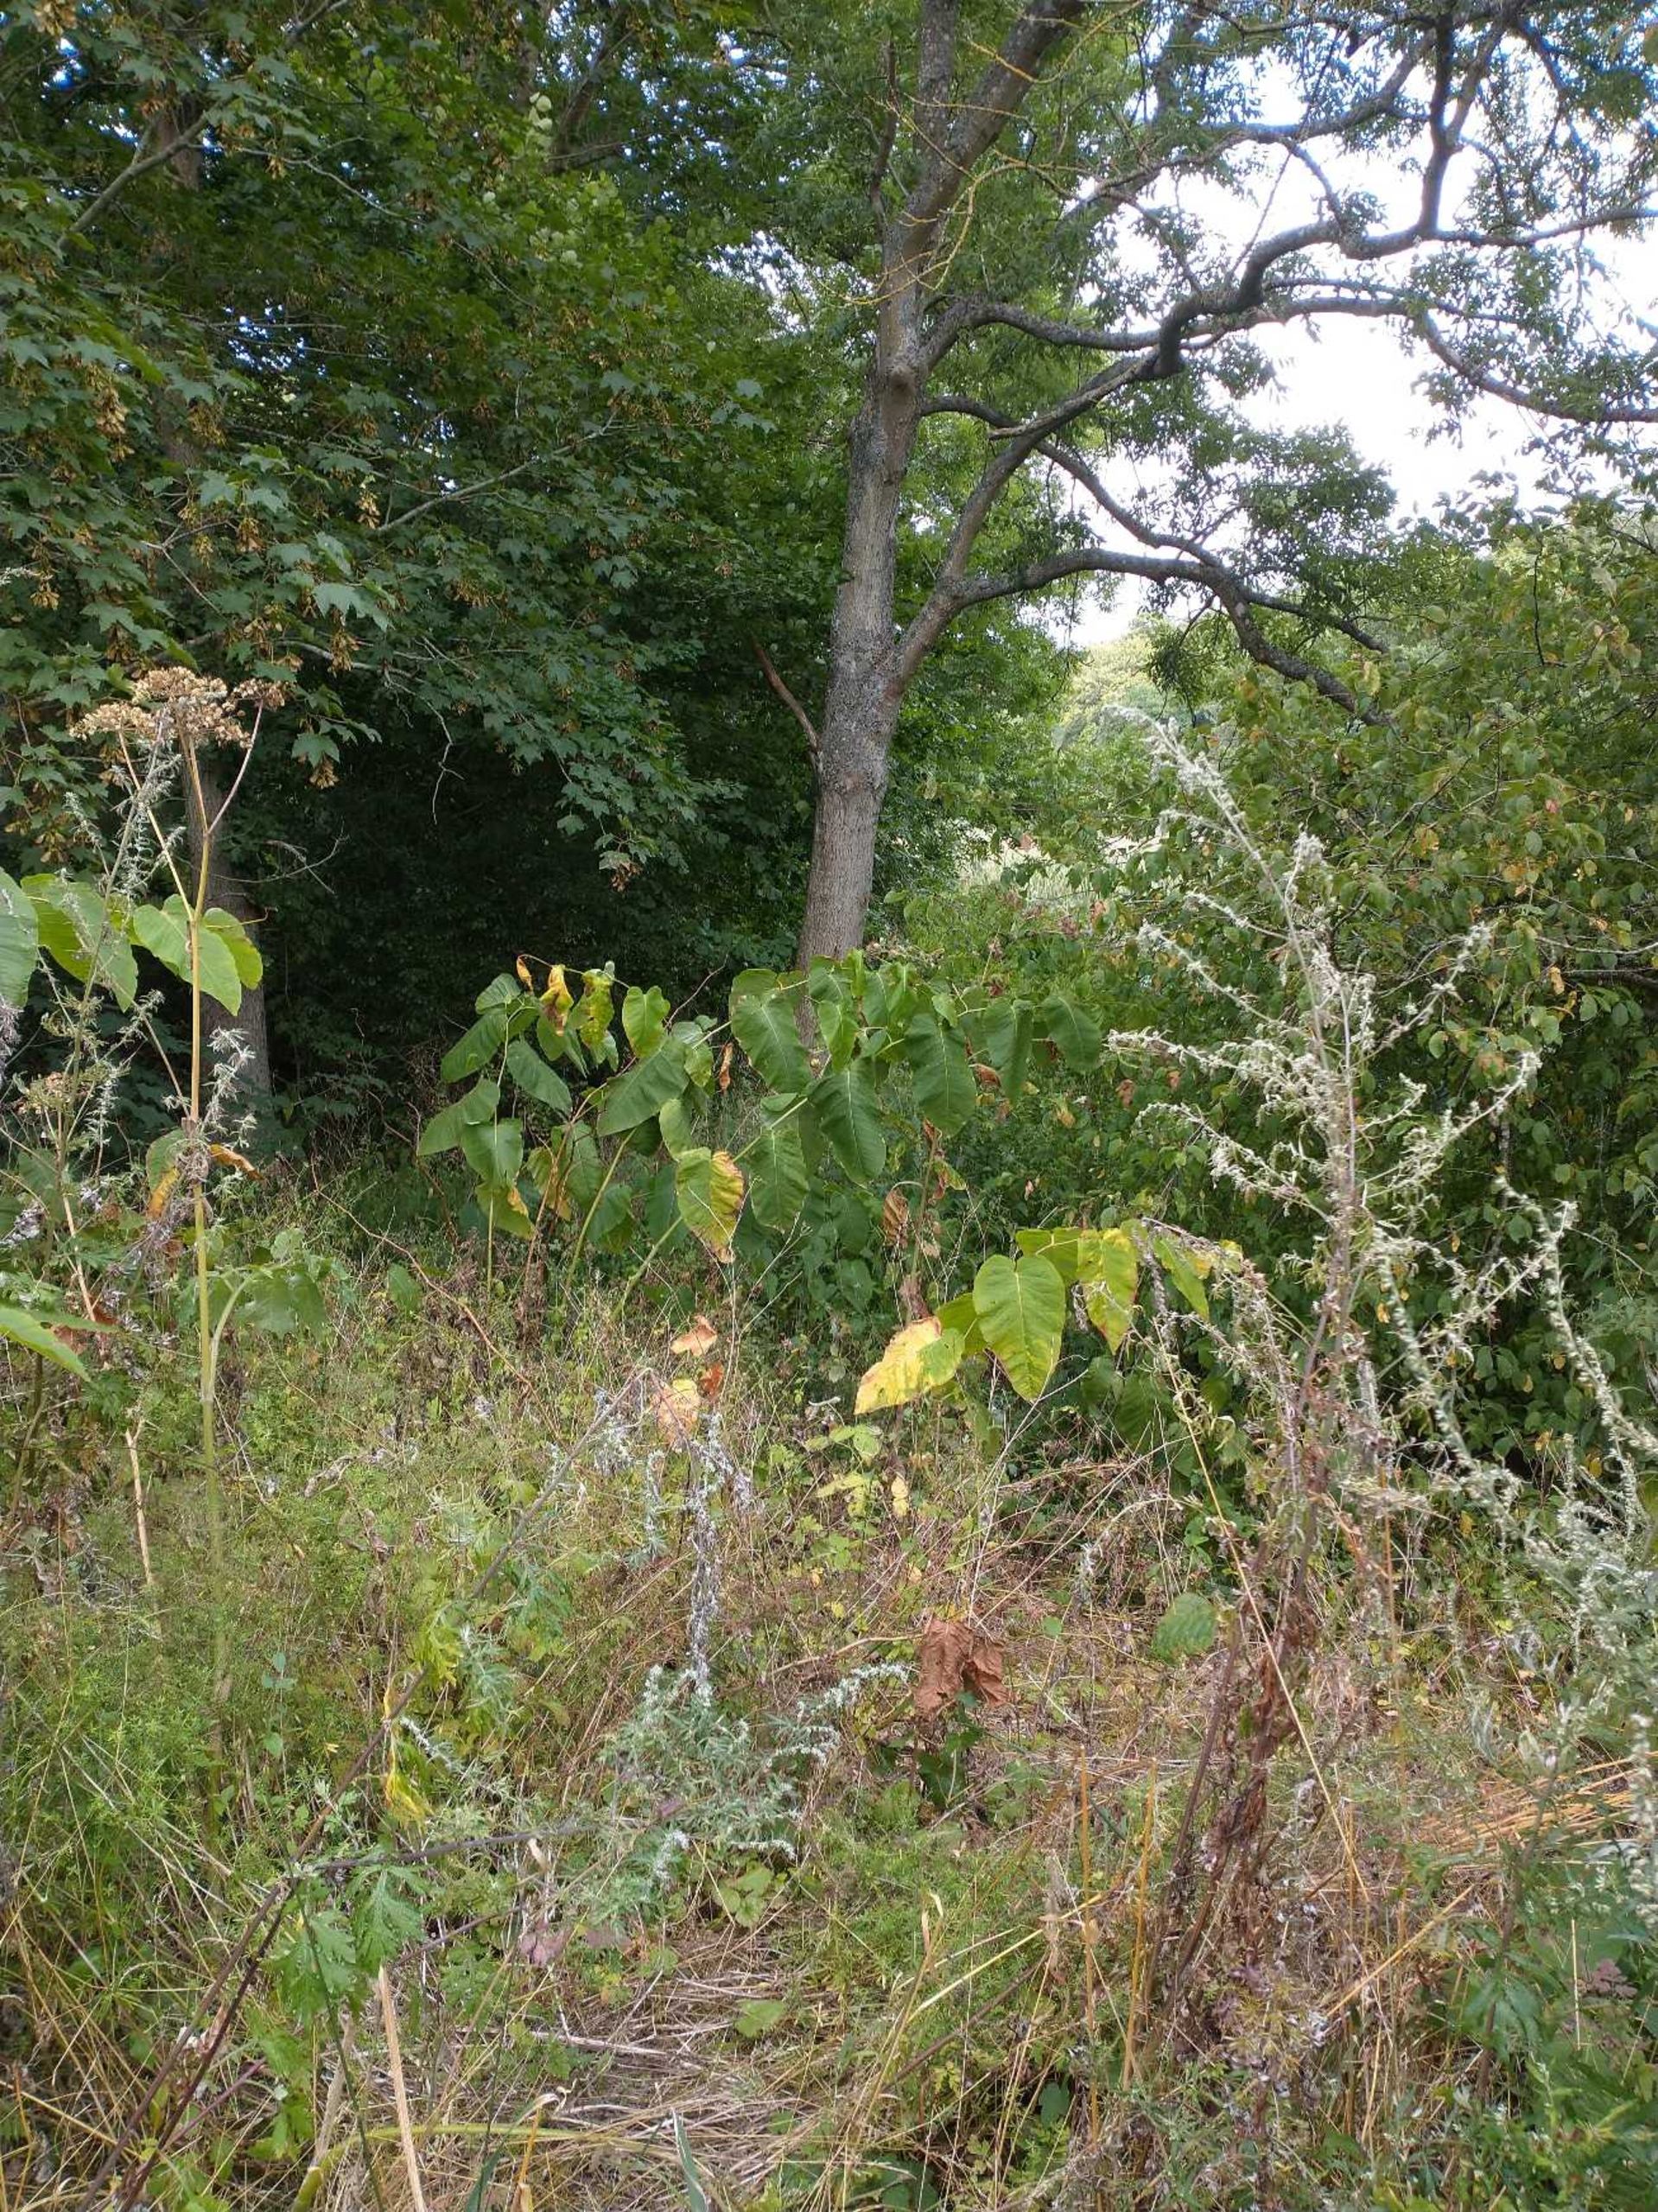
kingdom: Plantae
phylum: Tracheophyta
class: Magnoliopsida
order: Caryophyllales
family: Polygonaceae
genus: Reynoutria
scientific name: Reynoutria sachalinensis
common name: Kæmpe-pileurt
